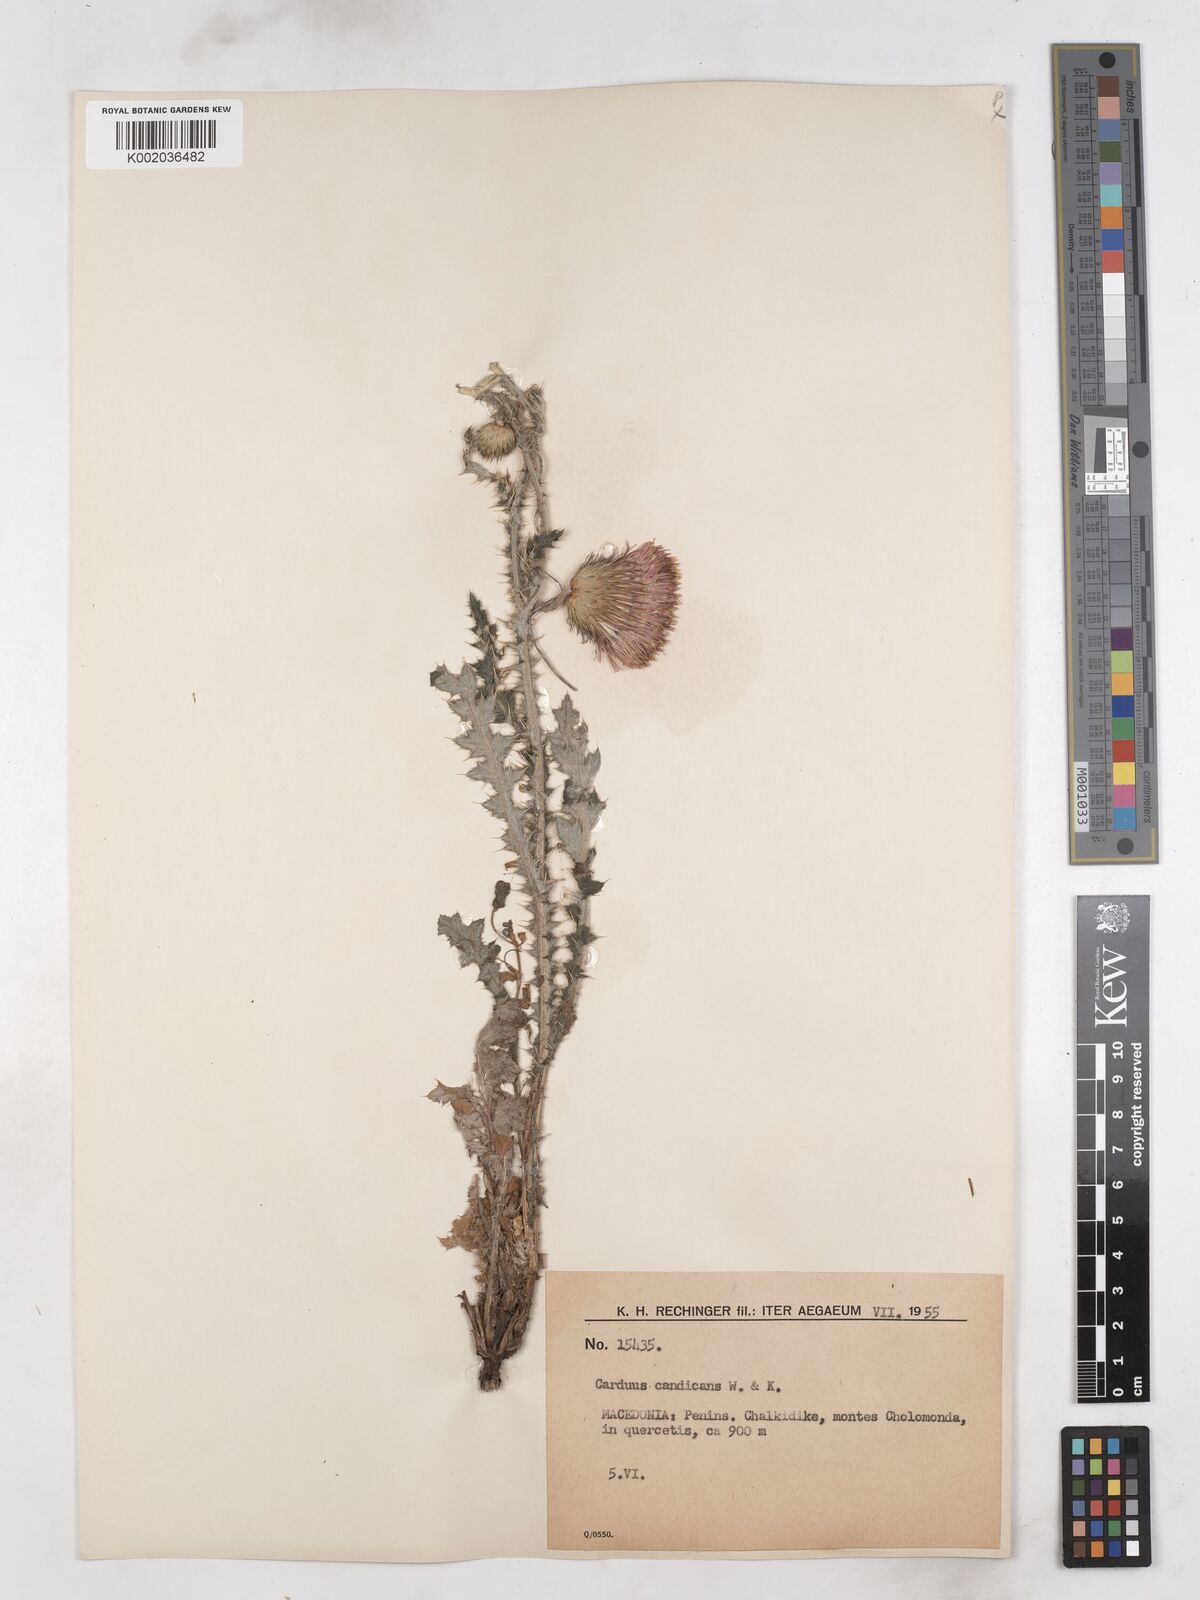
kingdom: Plantae
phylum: Tracheophyta
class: Magnoliopsida
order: Asterales
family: Asteraceae
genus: Carduus
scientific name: Carduus candicans
